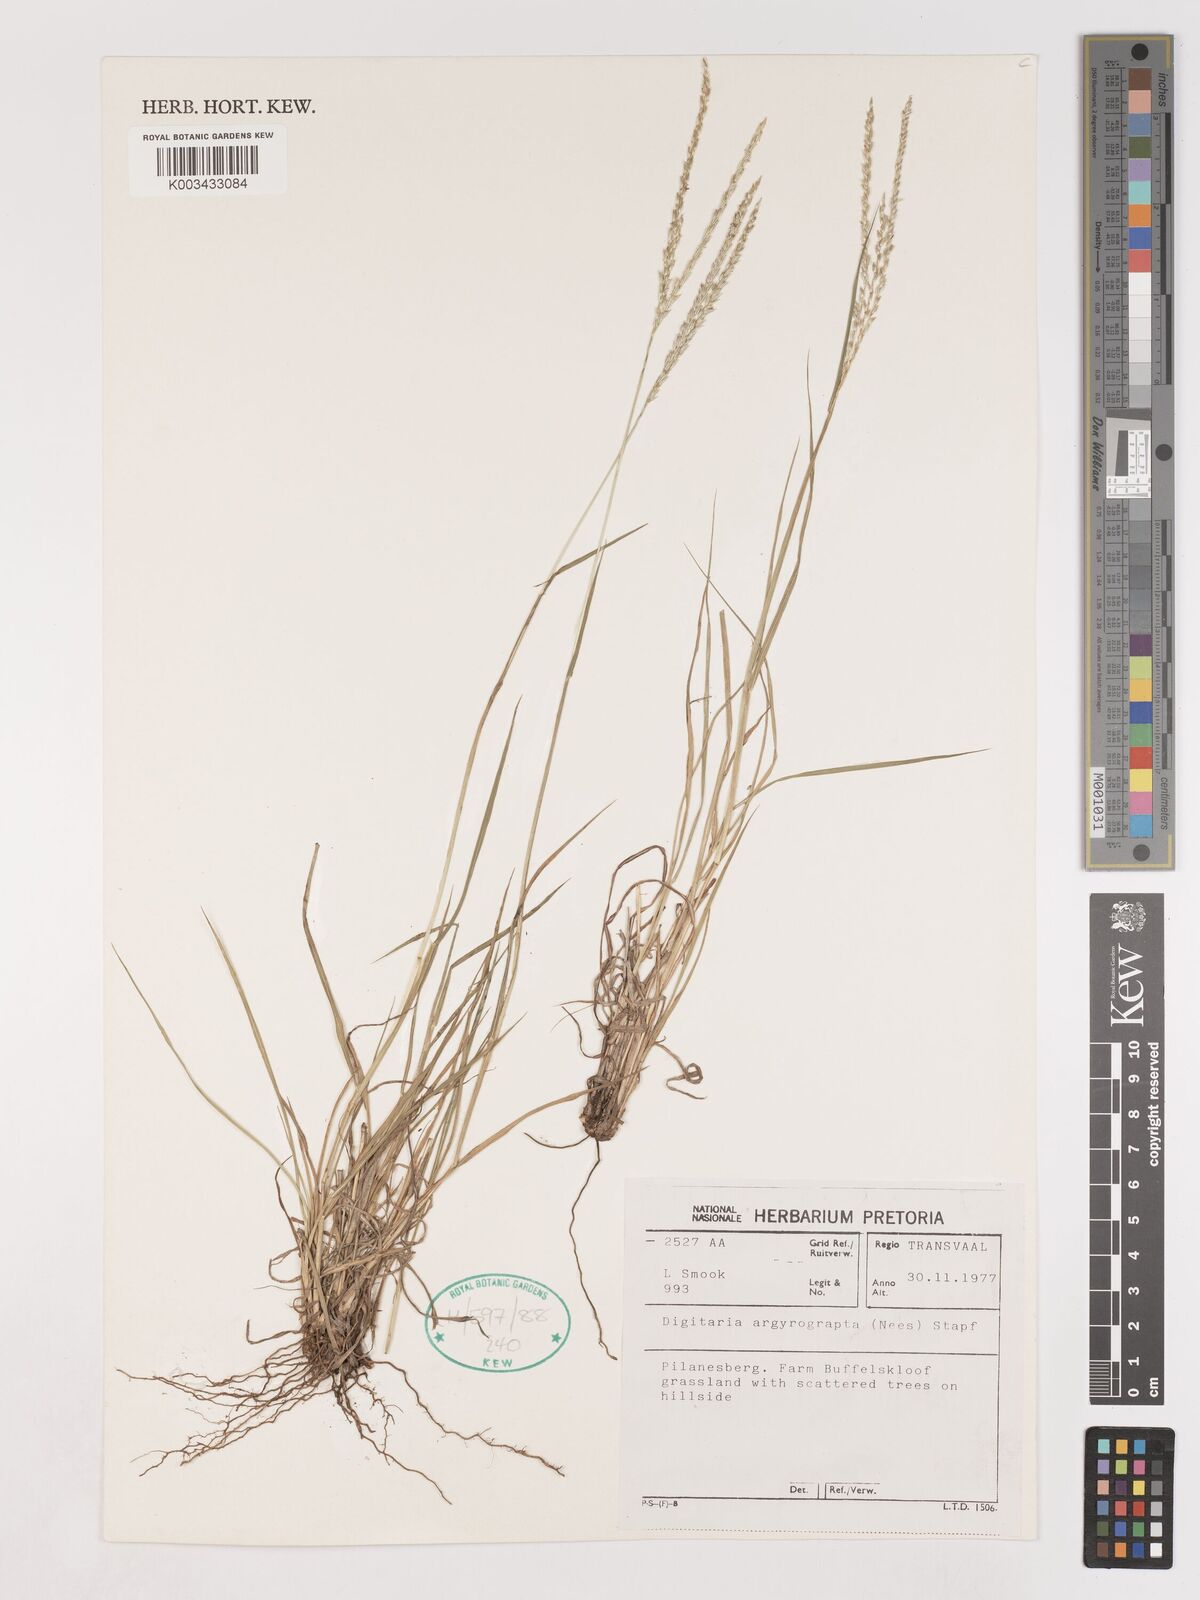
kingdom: Plantae
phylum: Tracheophyta
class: Liliopsida
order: Poales
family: Poaceae
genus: Digitaria
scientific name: Digitaria argyrograpta
